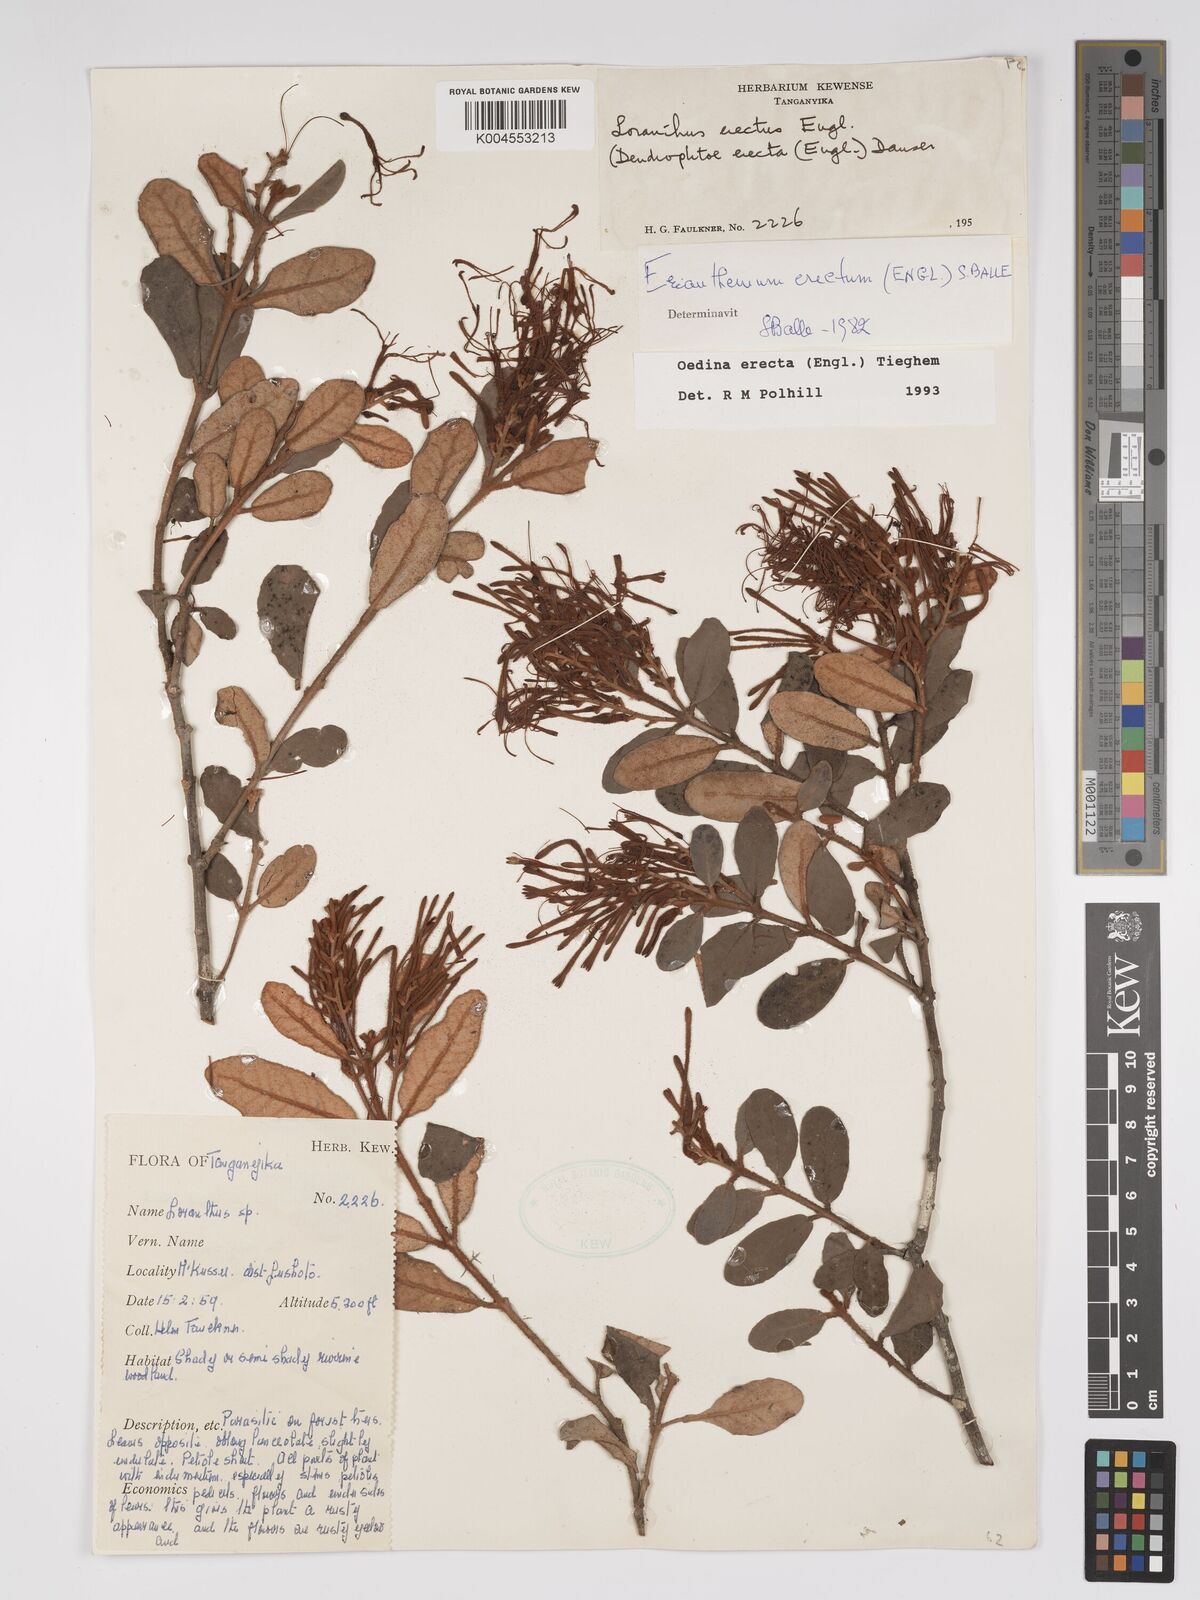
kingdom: Plantae
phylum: Tracheophyta
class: Magnoliopsida
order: Santalales
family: Loranthaceae
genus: Oedina
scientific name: Oedina erecta
